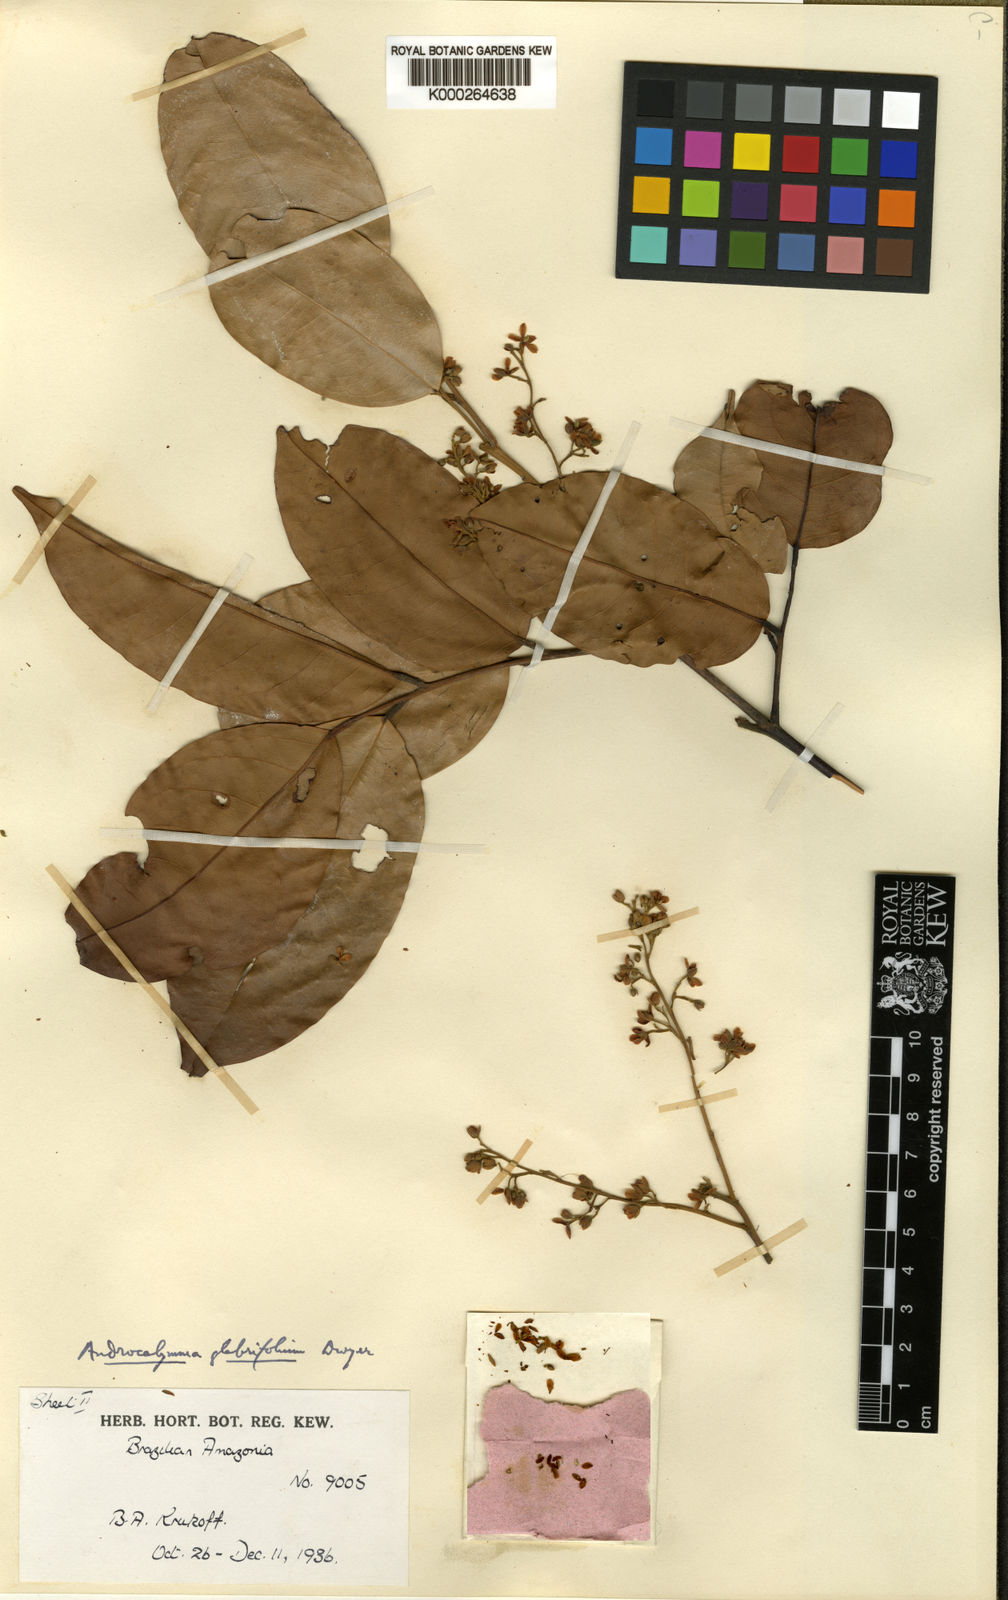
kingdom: Plantae
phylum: Tracheophyta
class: Magnoliopsida
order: Fabales
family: Fabaceae
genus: Androcalymma
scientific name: Androcalymma glabrifolium
